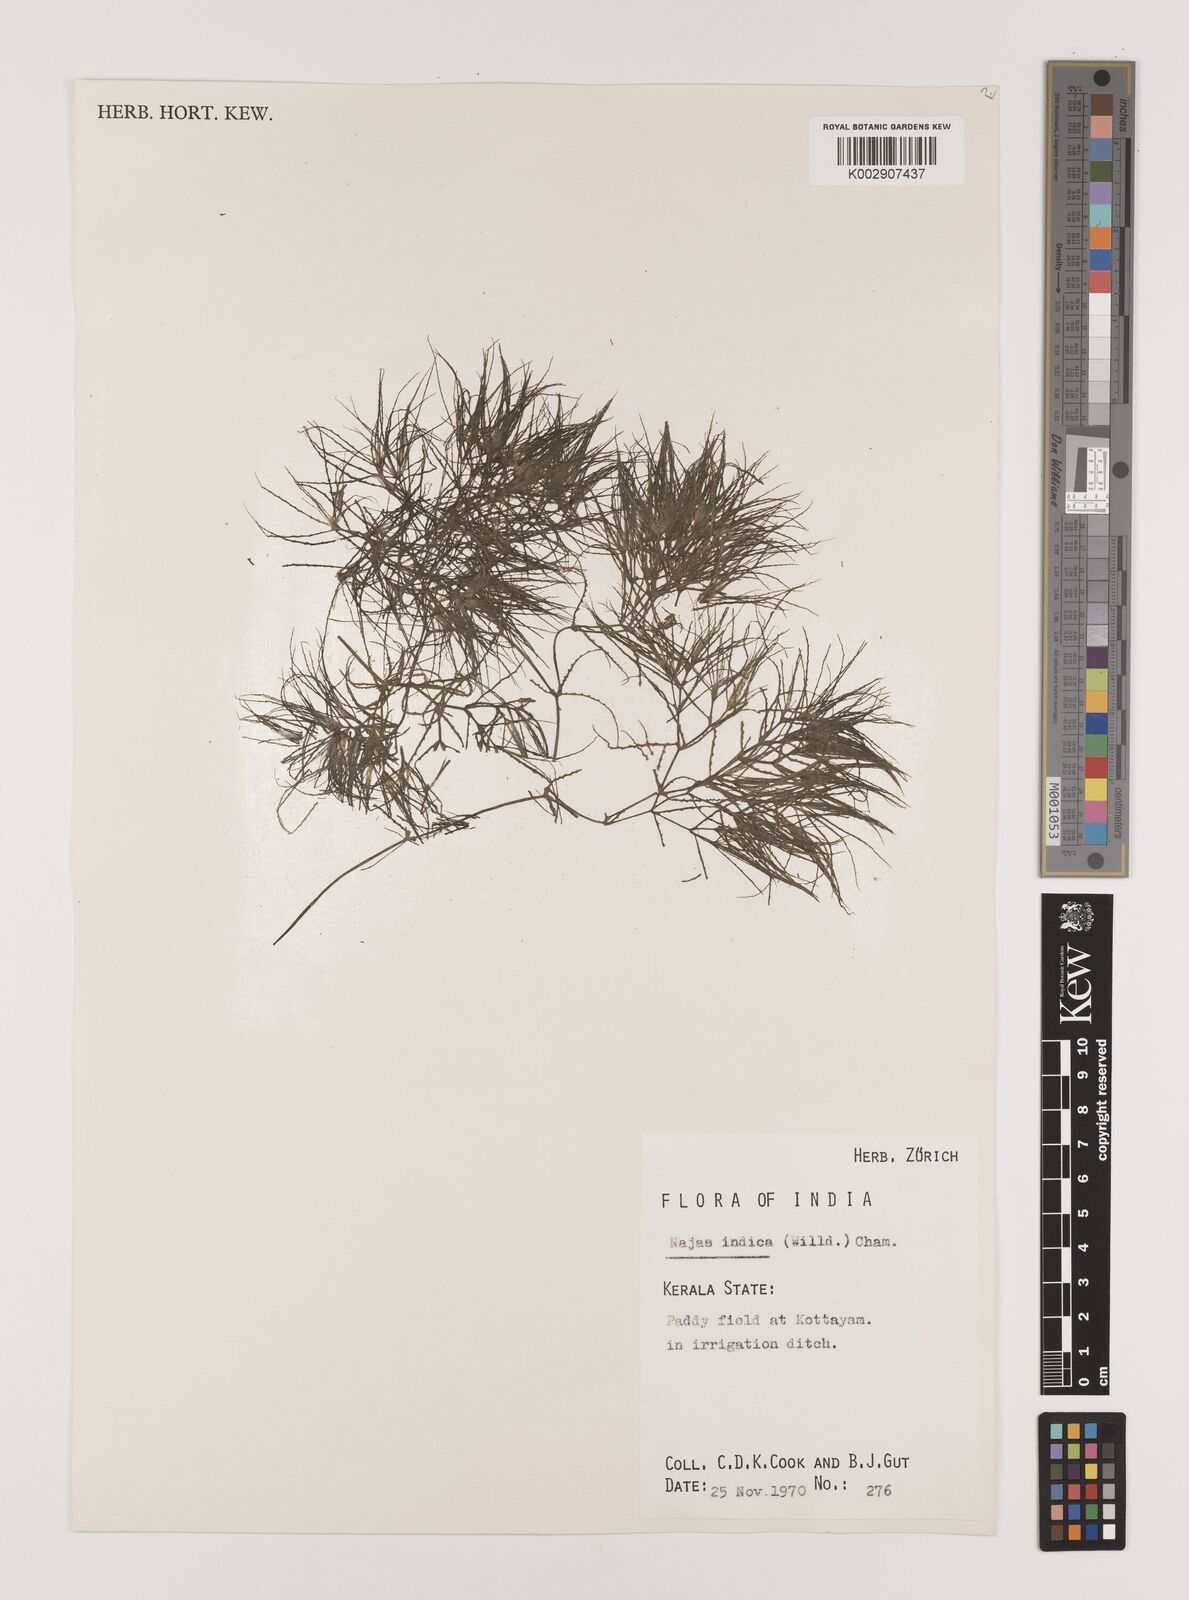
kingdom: Plantae
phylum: Tracheophyta
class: Liliopsida
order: Alismatales
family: Hydrocharitaceae
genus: Najas
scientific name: Najas indica
